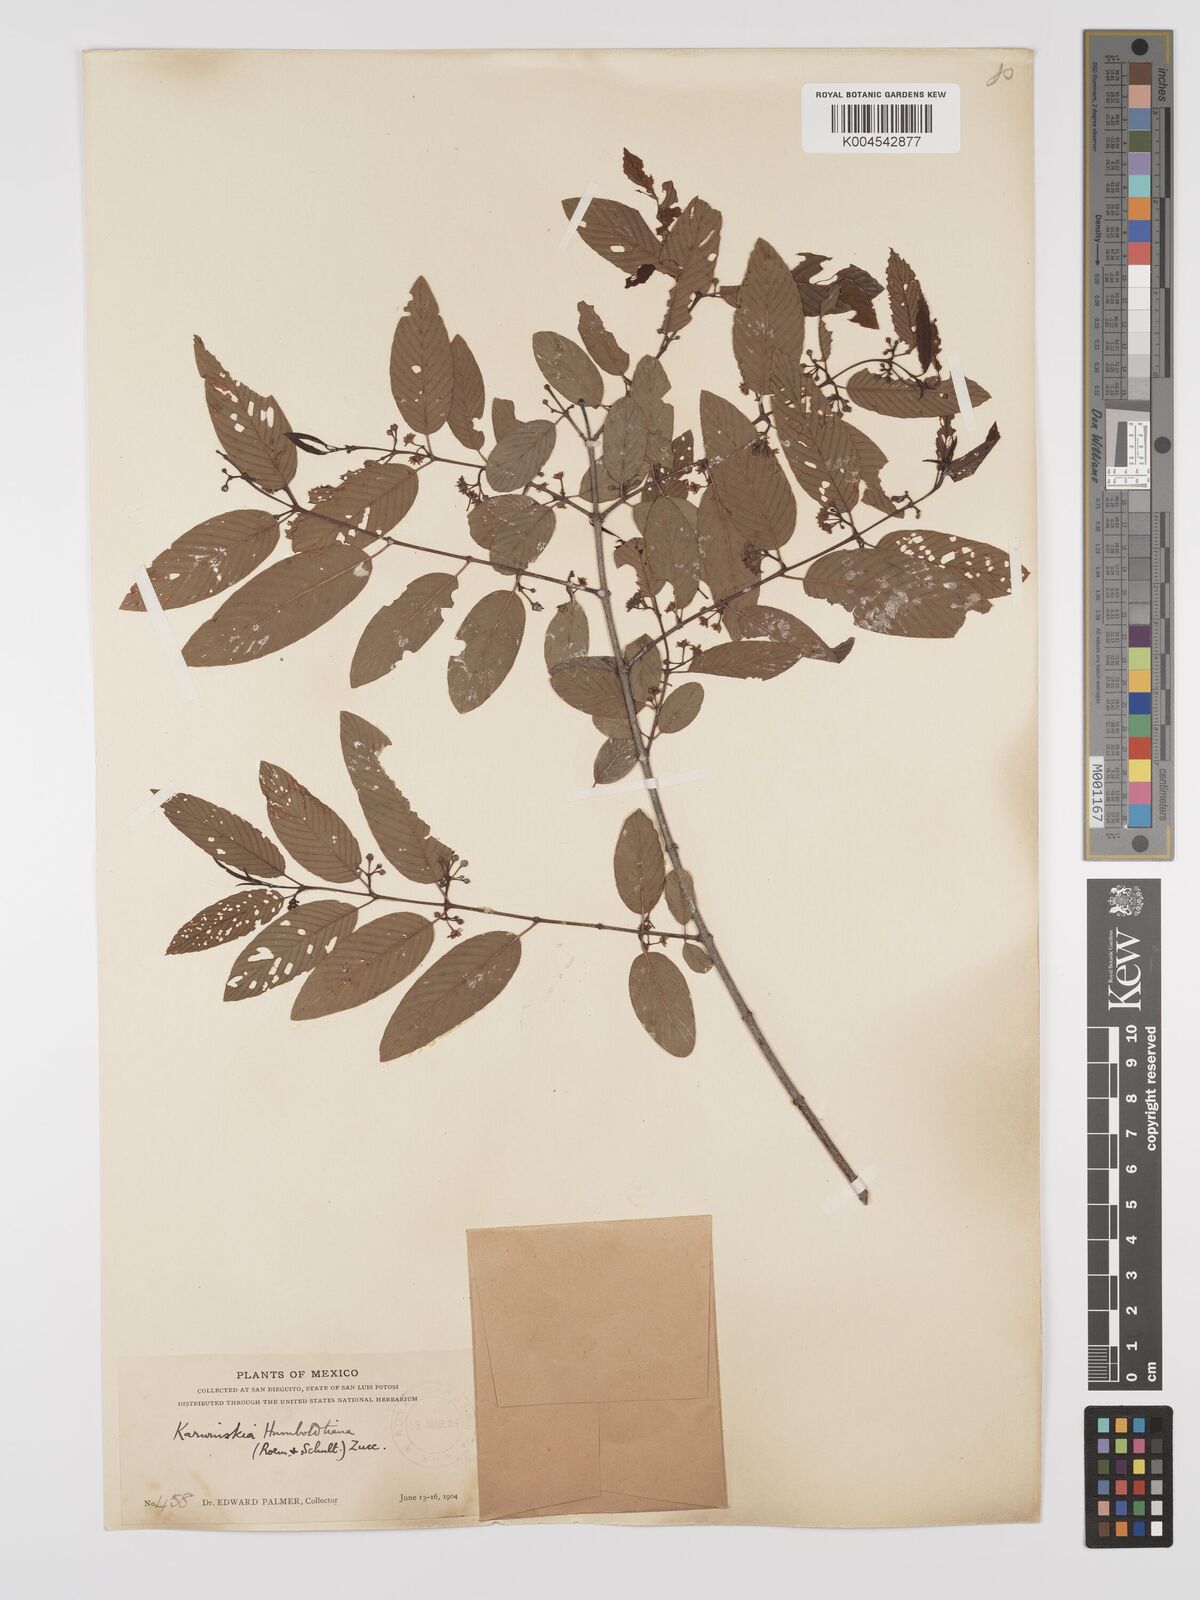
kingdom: Plantae
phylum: Tracheophyta
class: Magnoliopsida
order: Rosales
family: Rhamnaceae
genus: Karwinskia
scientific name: Karwinskia humboldtiana
